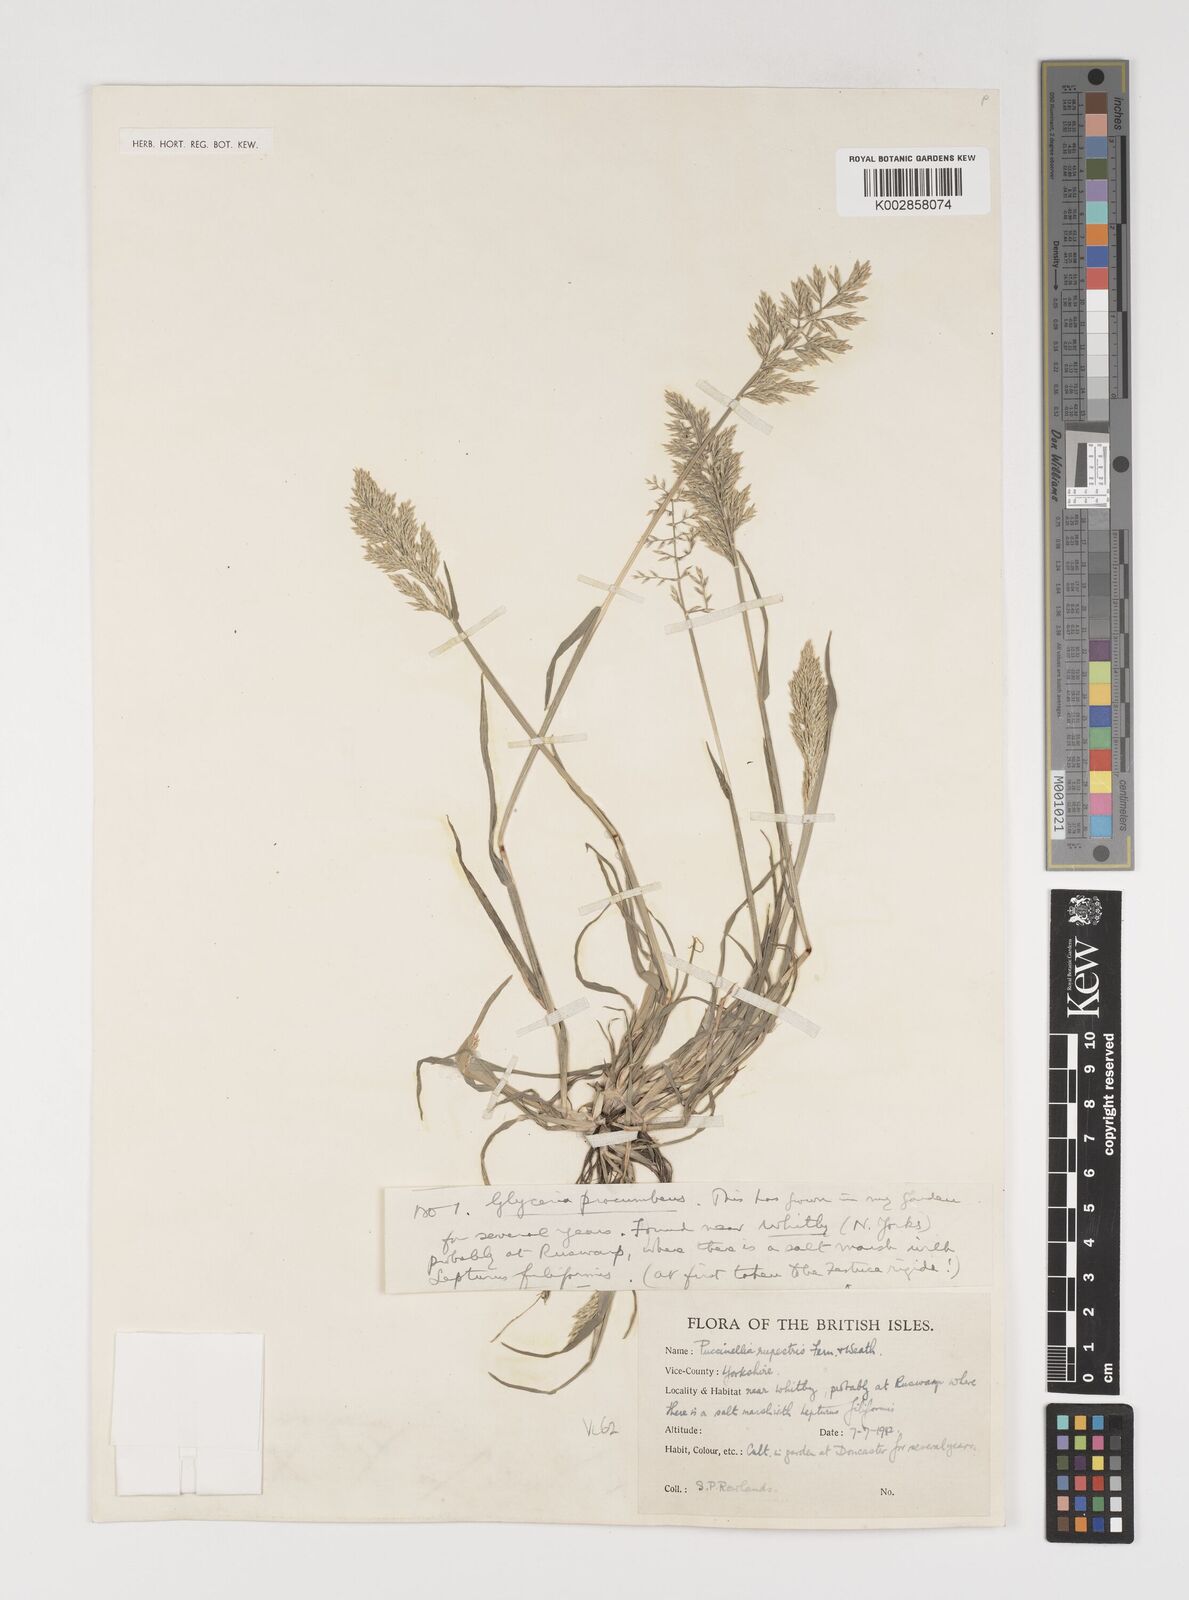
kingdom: Plantae
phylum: Tracheophyta
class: Liliopsida
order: Poales
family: Poaceae
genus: Puccinellia
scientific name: Puccinellia rupestris
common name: Stiff saltmarsh-grass
